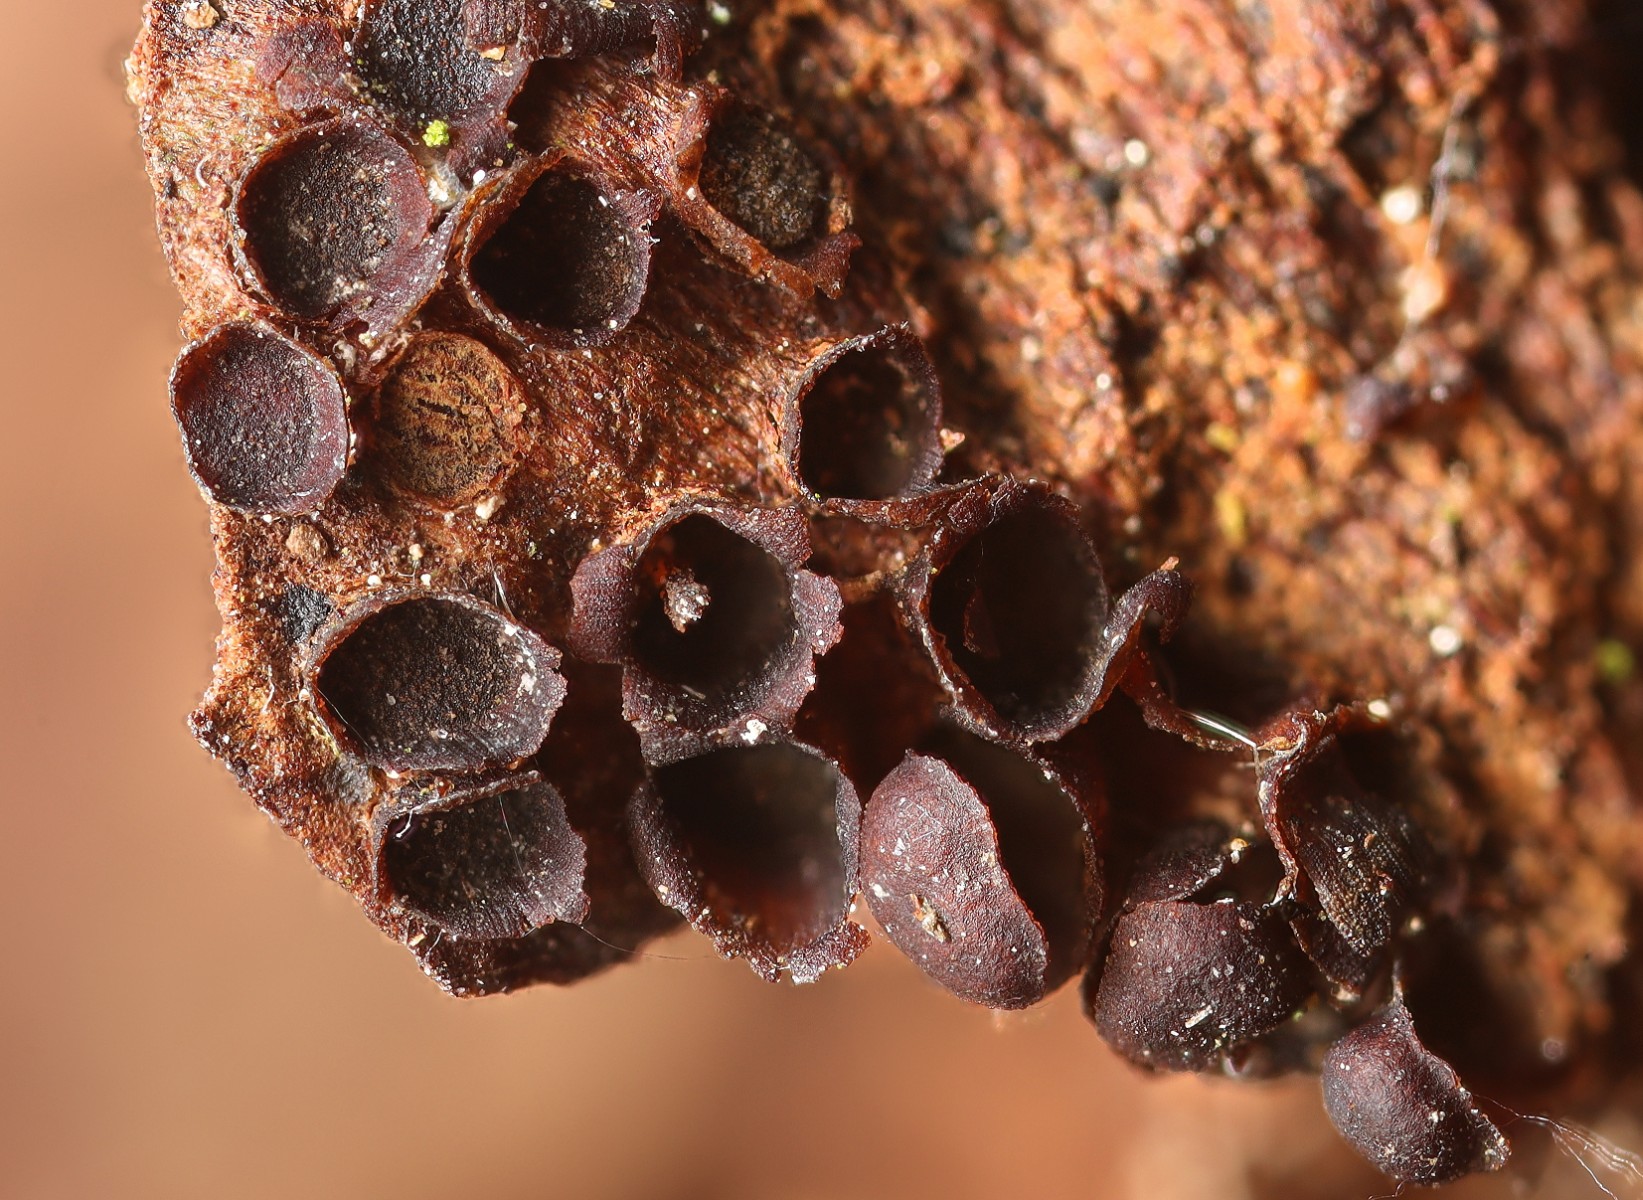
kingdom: Fungi
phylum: Basidiomycota
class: Pucciniomycetes
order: Pucciniales
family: Pucciniastraceae
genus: Thekopsora
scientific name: Thekopsora areolata
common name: grankogle-nålerust
